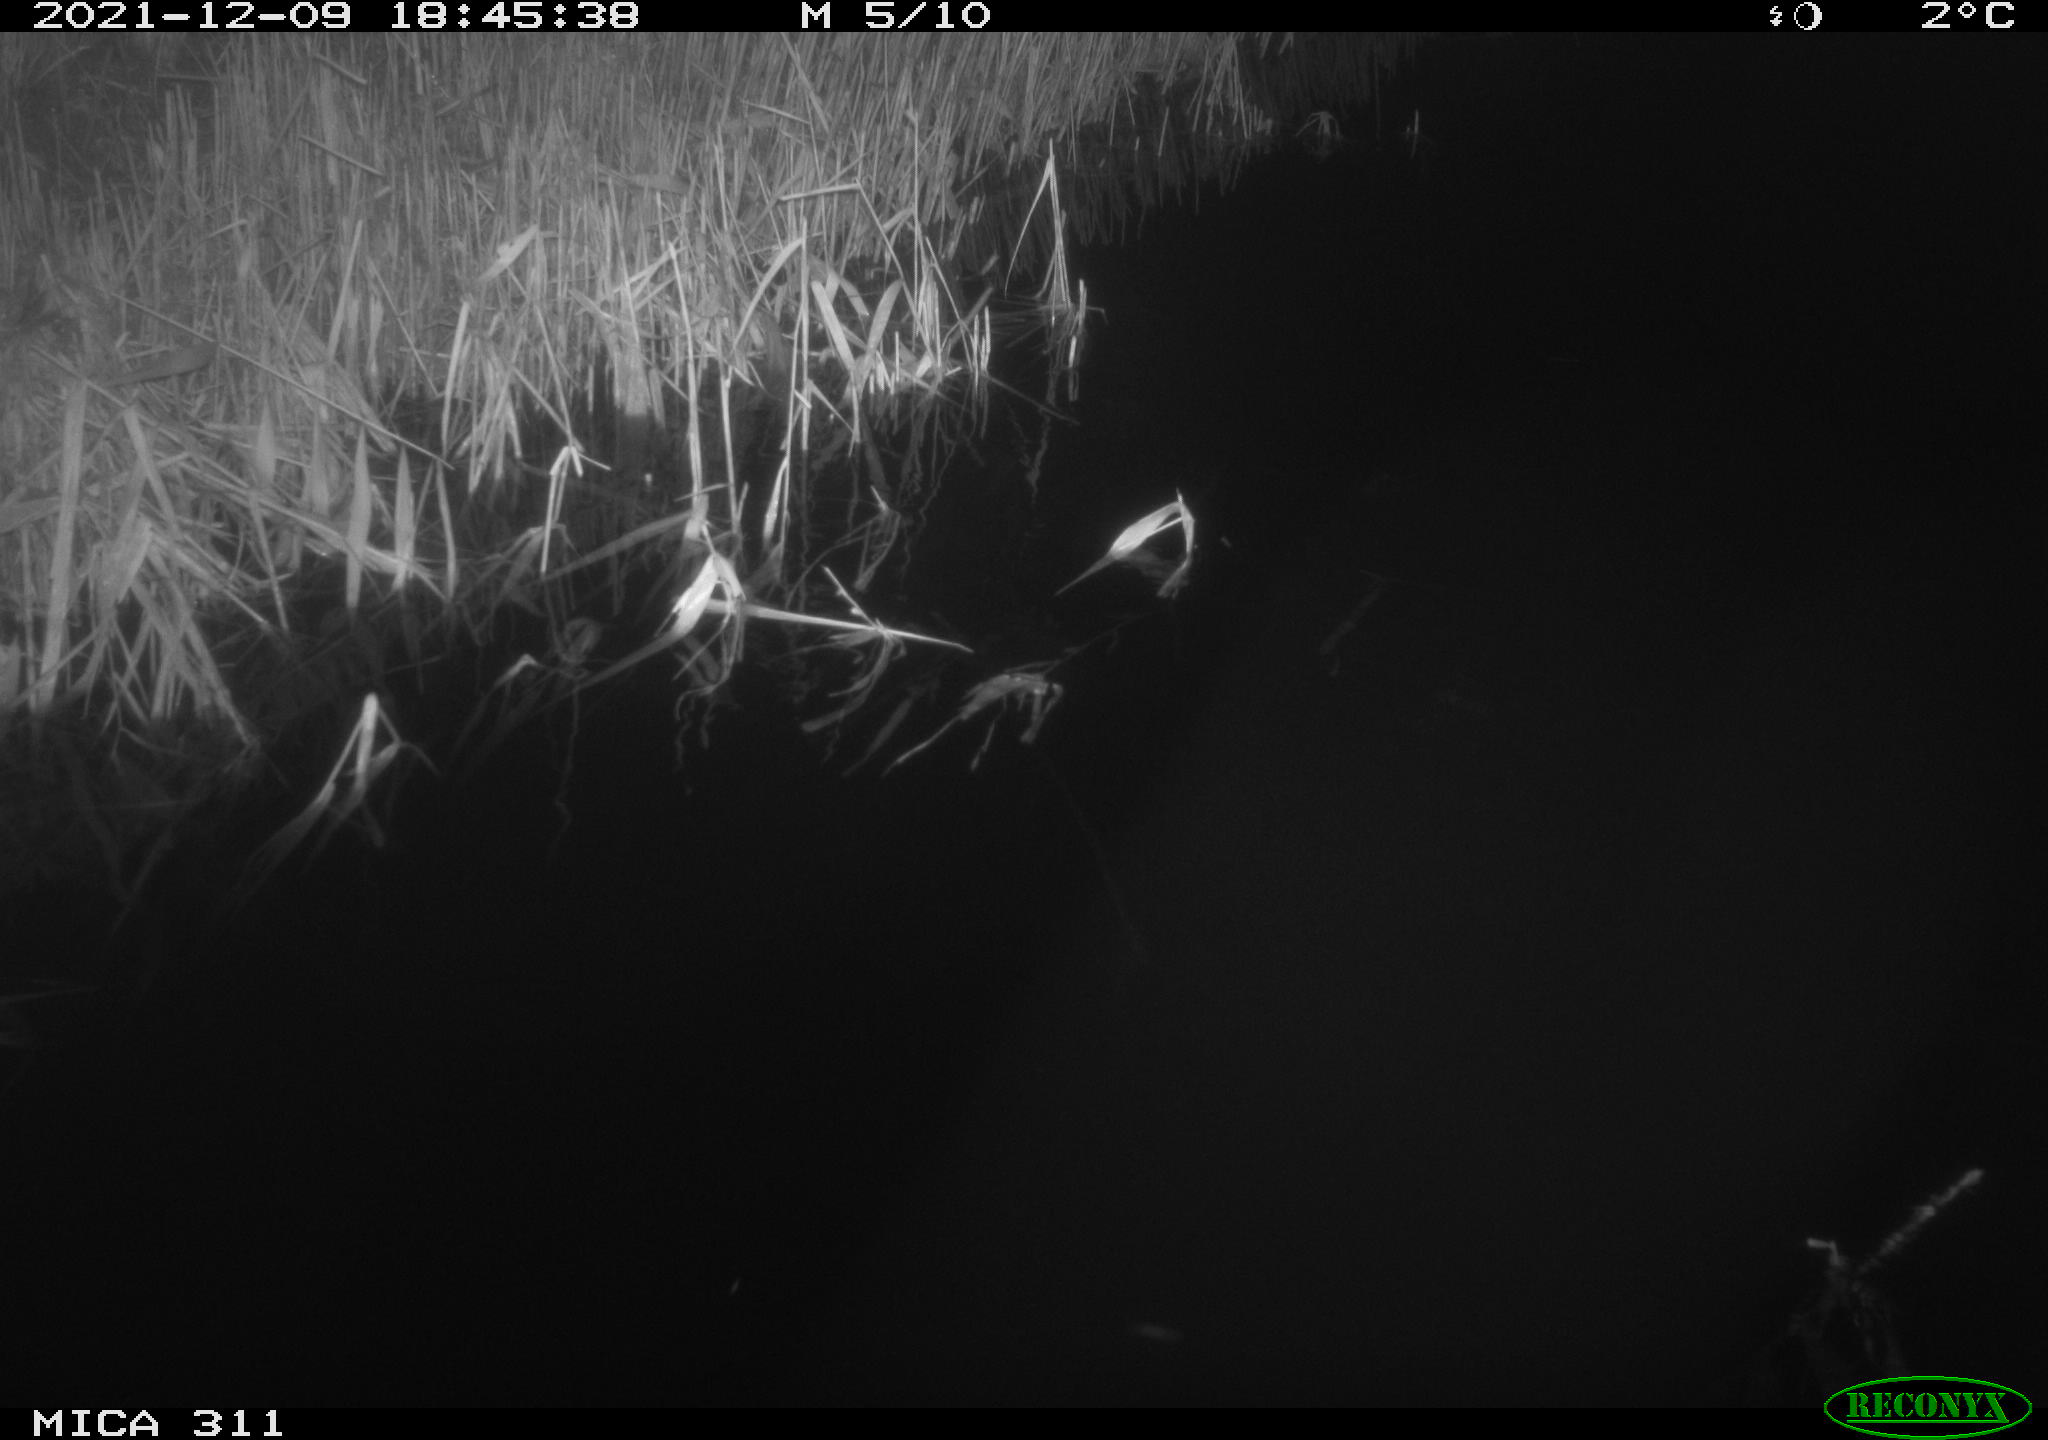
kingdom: Animalia
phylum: Chordata
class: Mammalia
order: Rodentia
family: Muridae
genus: Rattus
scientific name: Rattus norvegicus
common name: Brown rat
